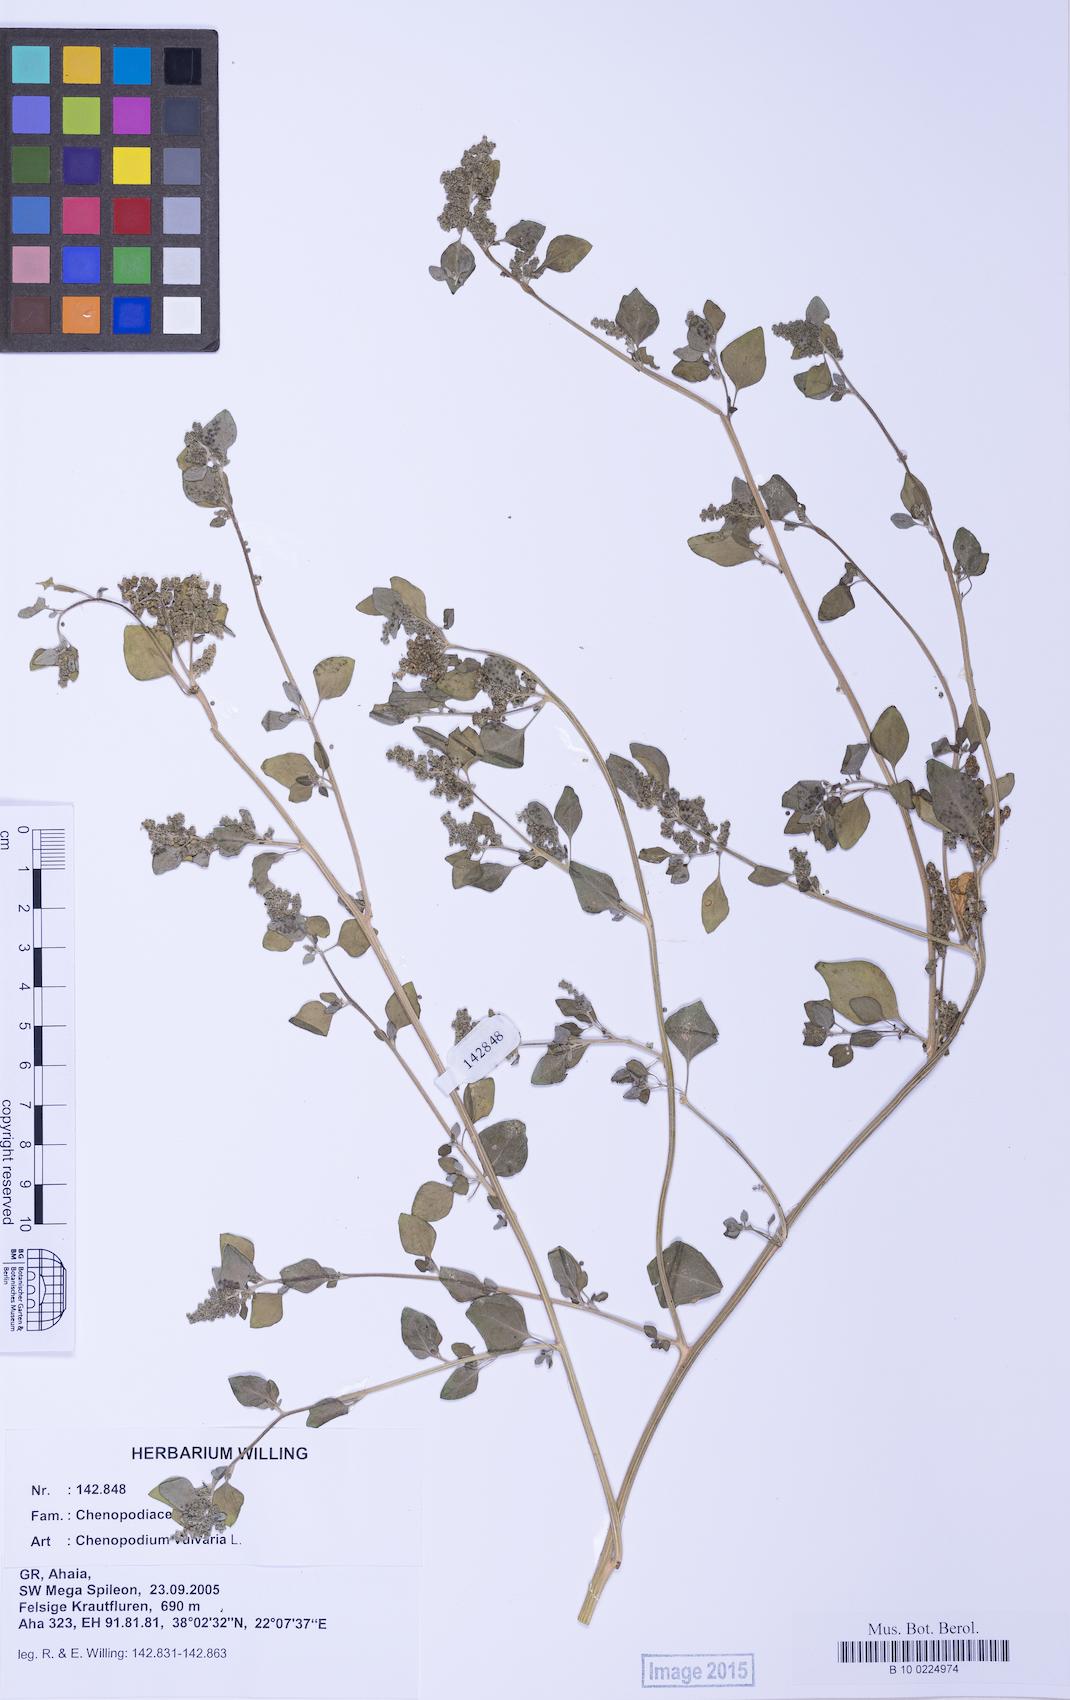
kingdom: Plantae
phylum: Tracheophyta
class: Magnoliopsida
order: Caryophyllales
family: Amaranthaceae
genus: Chenopodium
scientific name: Chenopodium vulvaria
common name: Stinking goosefoot
